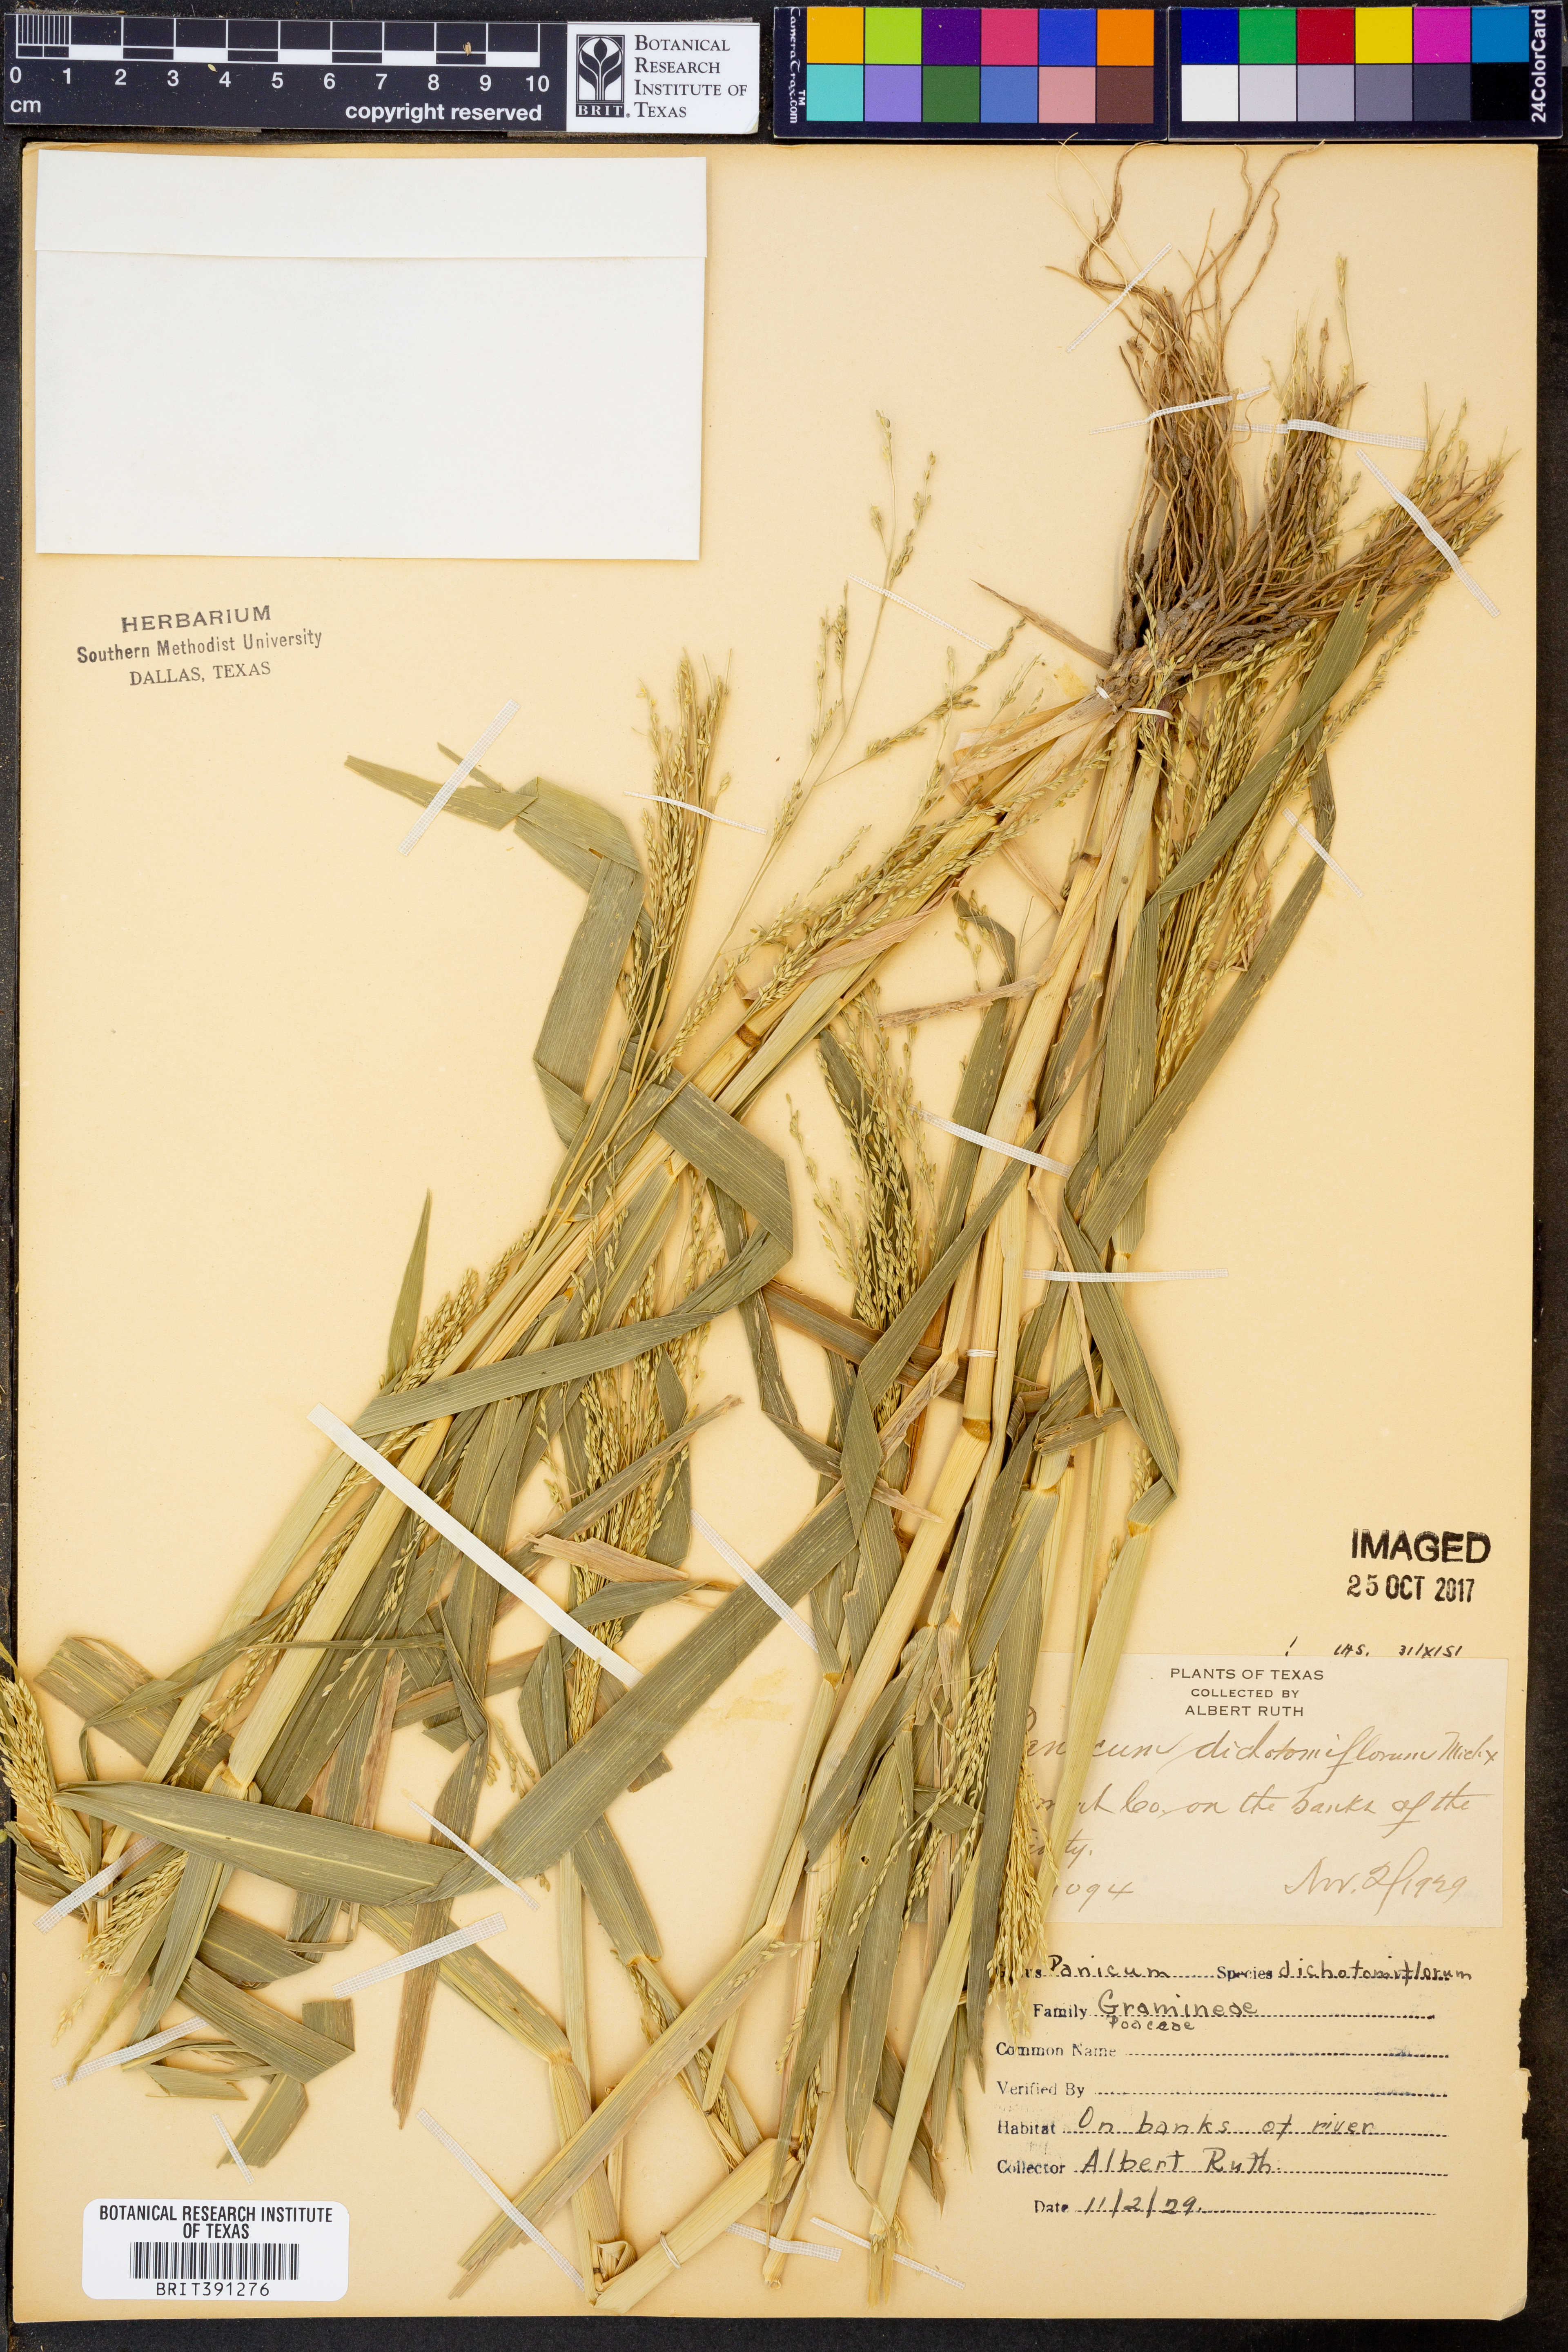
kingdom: Plantae
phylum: Tracheophyta
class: Liliopsida
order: Poales
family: Poaceae
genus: Panicum
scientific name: Panicum dichotomiflorum
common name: Autumn millet
